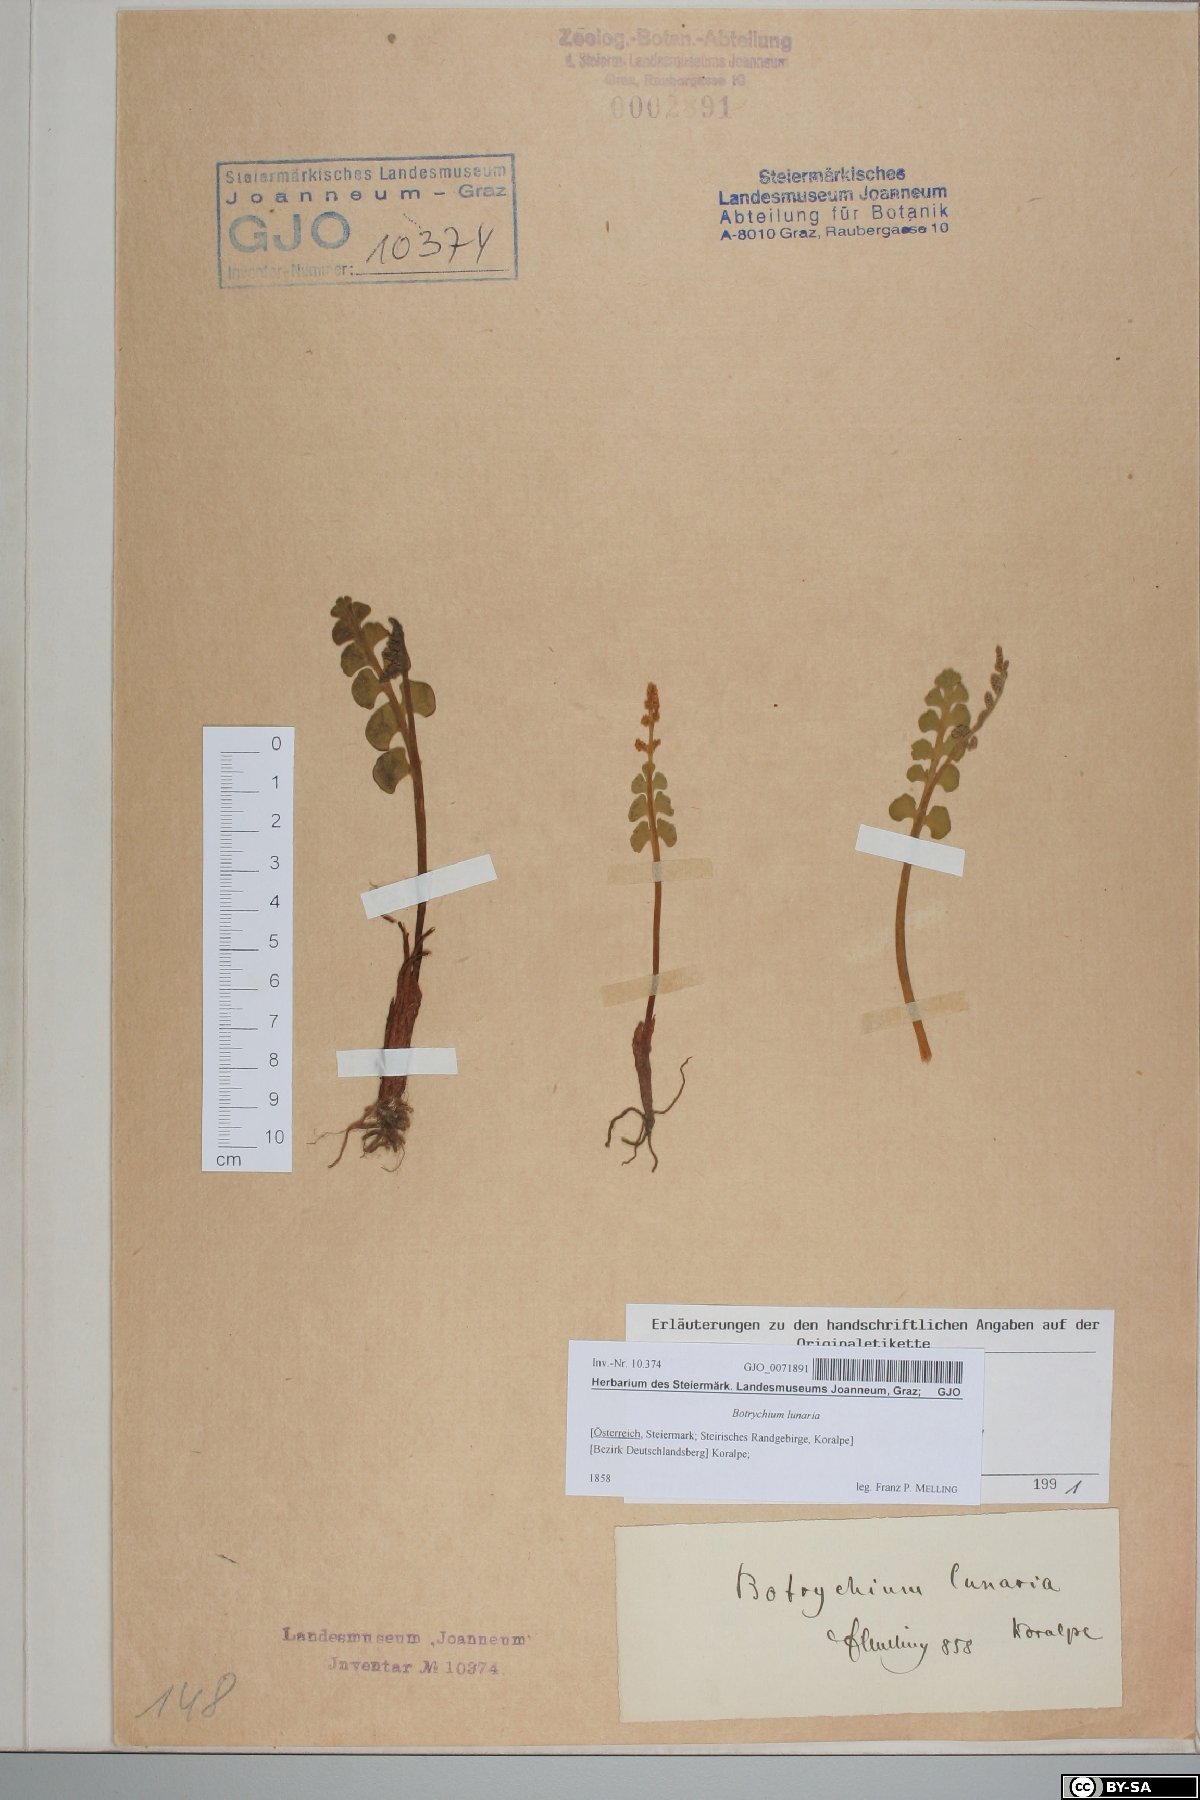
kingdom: Plantae
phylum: Tracheophyta
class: Polypodiopsida
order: Ophioglossales
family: Ophioglossaceae
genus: Botrychium
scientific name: Botrychium lunaria
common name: Moonwort
